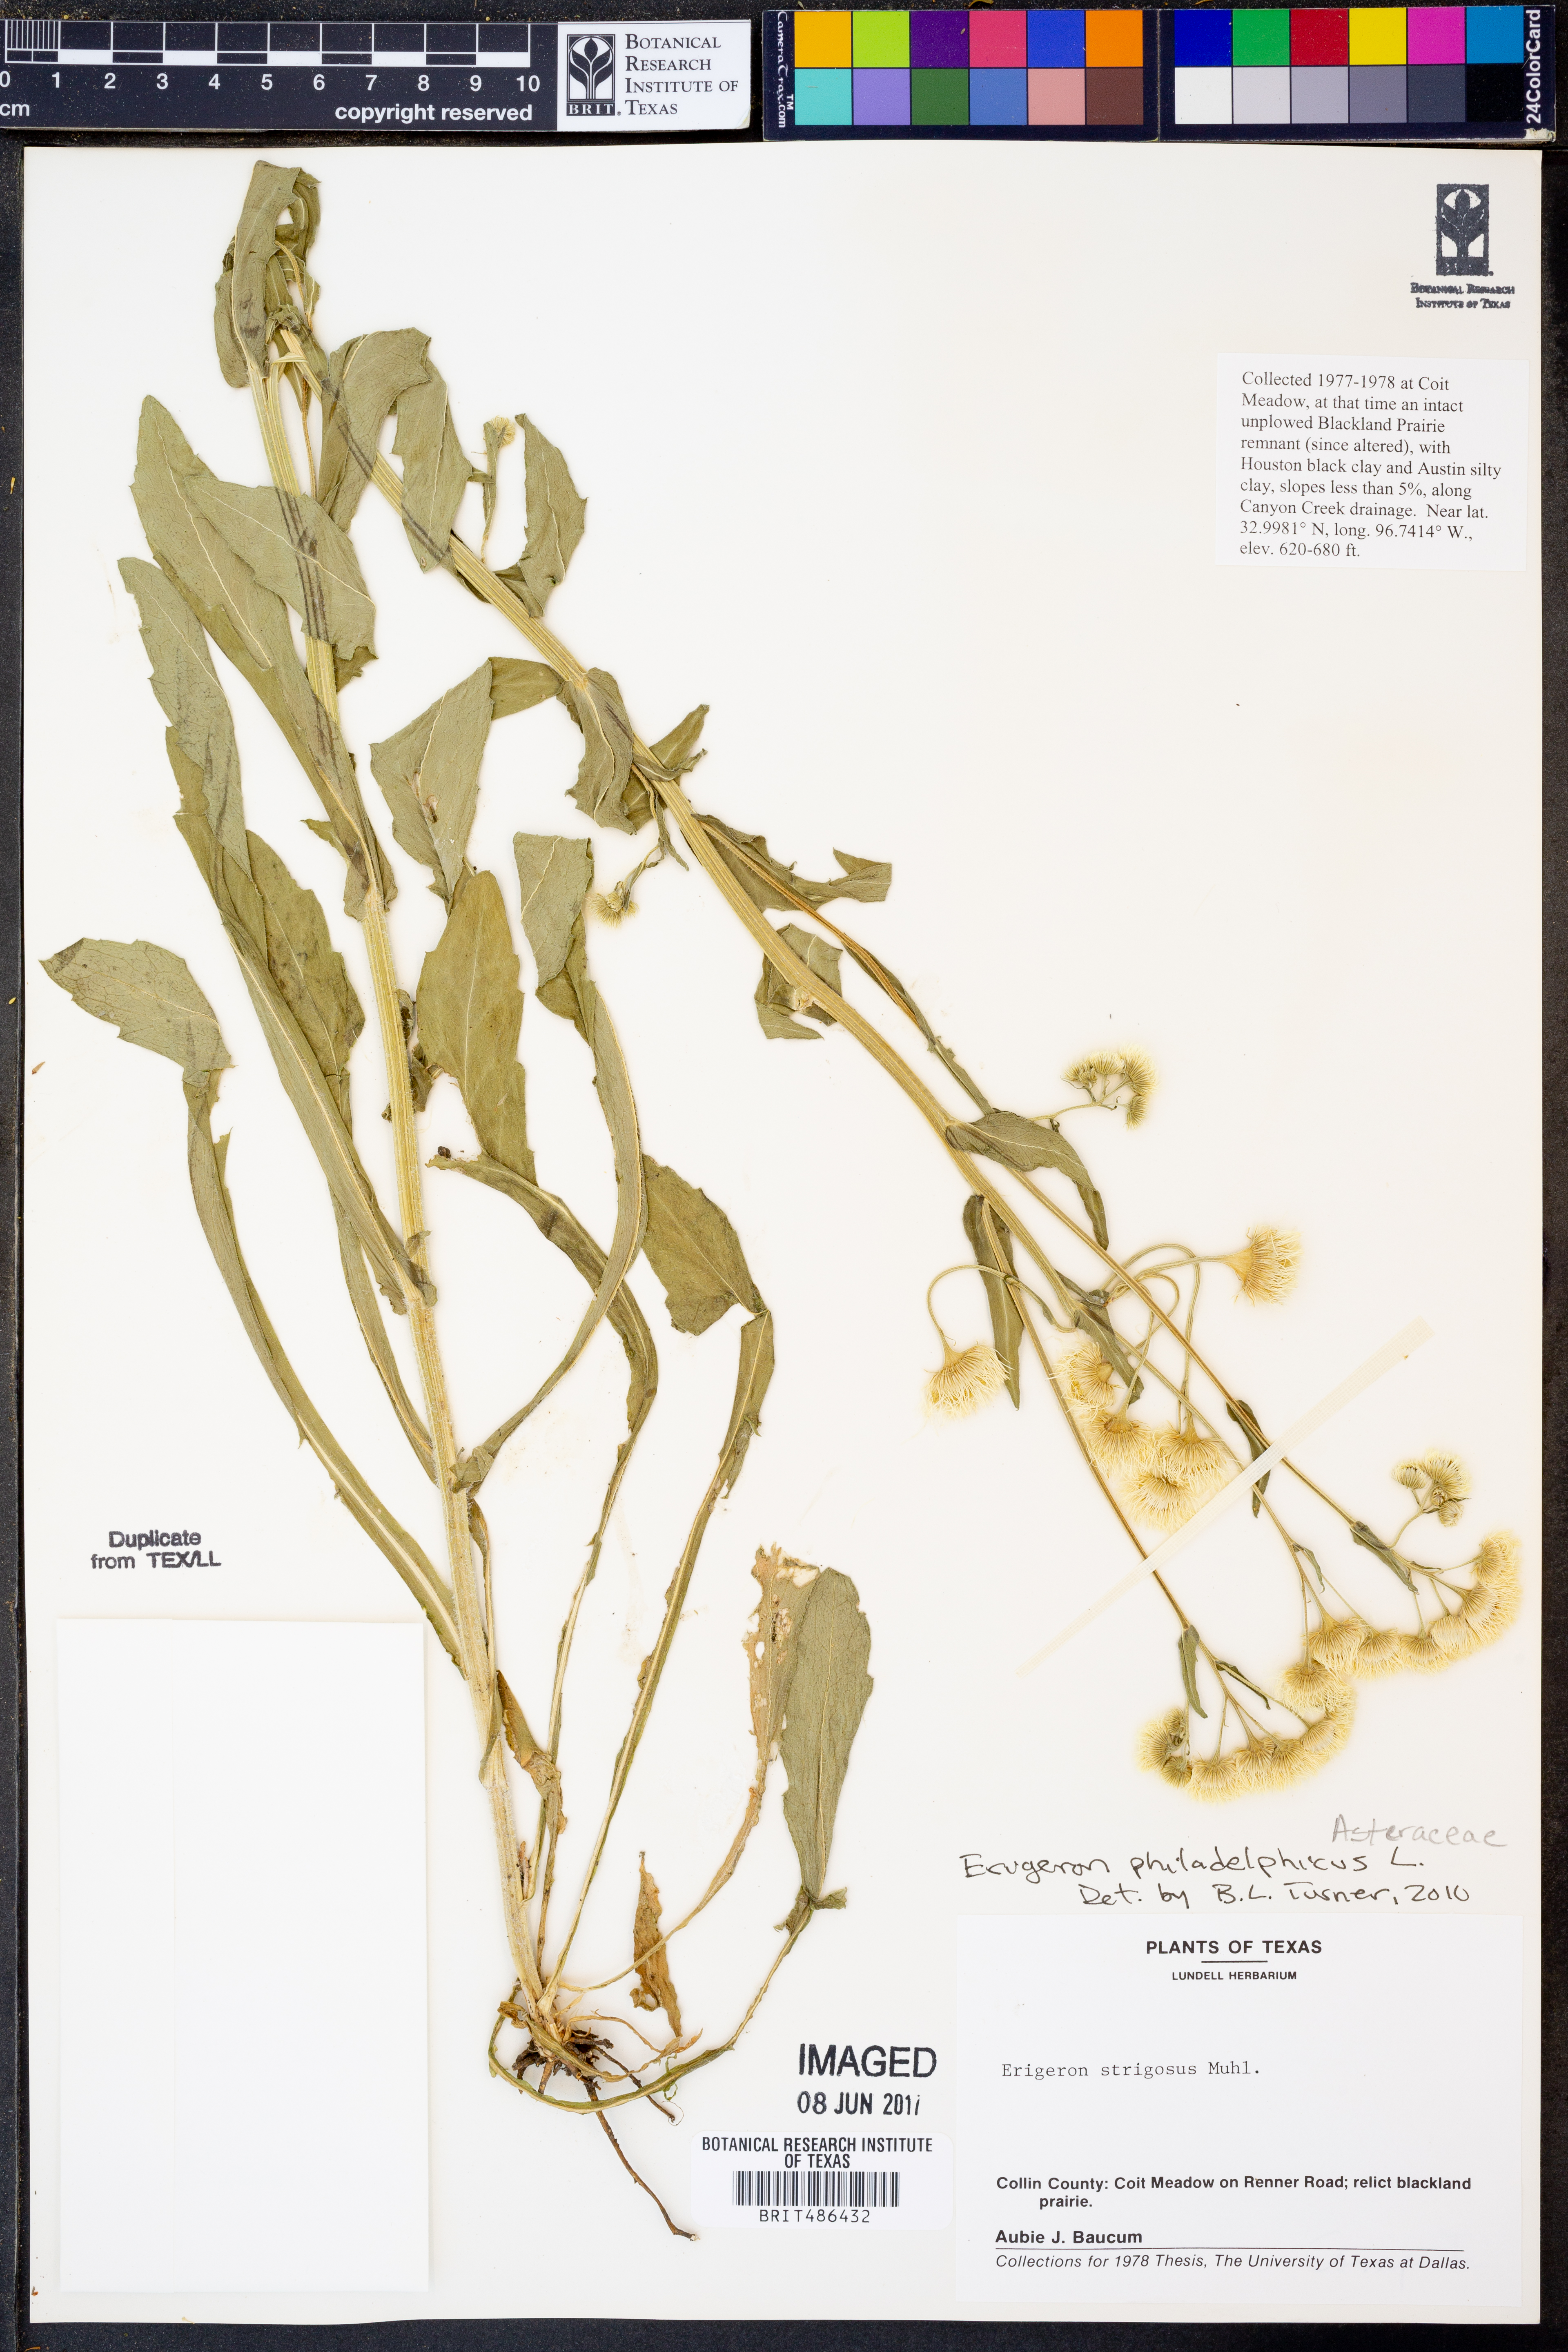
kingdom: Plantae
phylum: Tracheophyta
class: Magnoliopsida
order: Asterales
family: Asteraceae
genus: Erigeron
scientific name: Erigeron philadelphicus
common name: Robin's-plantain
